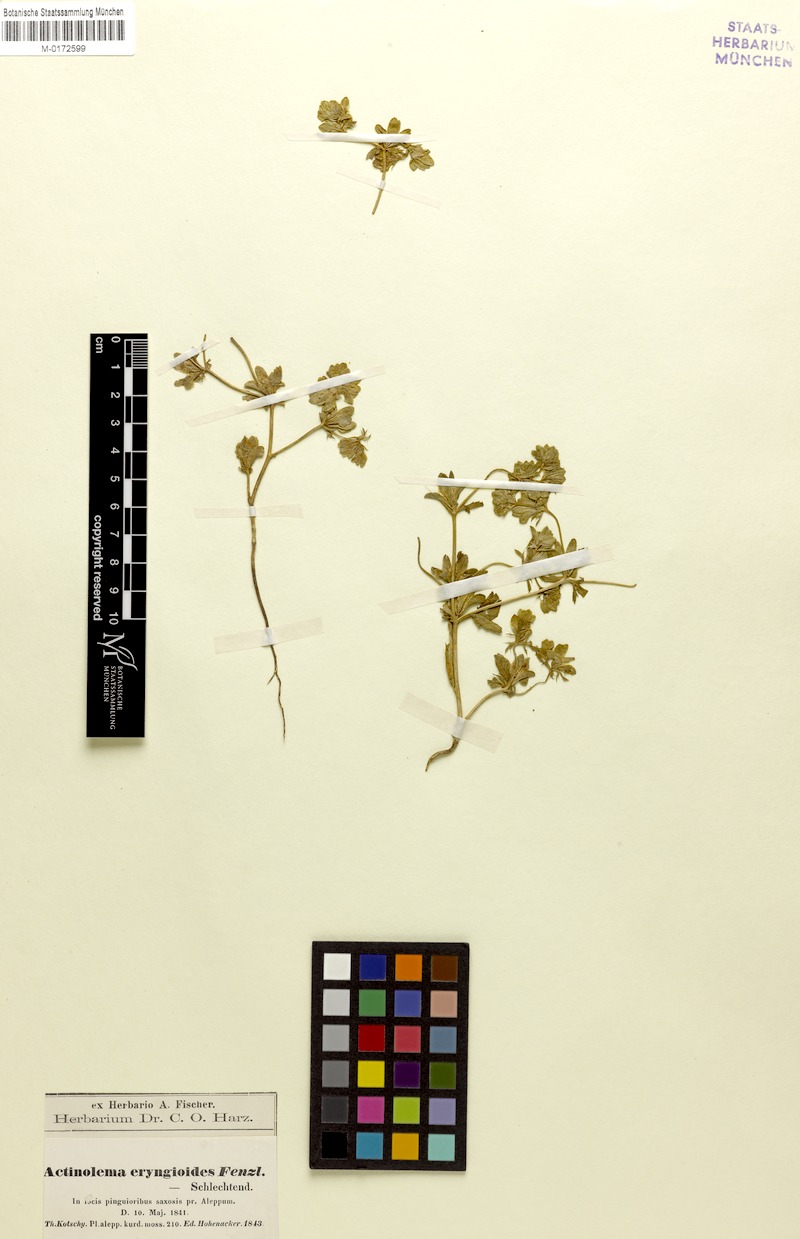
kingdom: Plantae
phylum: Tracheophyta
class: Magnoliopsida
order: Apiales
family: Apiaceae
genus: Actinolema
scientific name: Actinolema eryngioides
